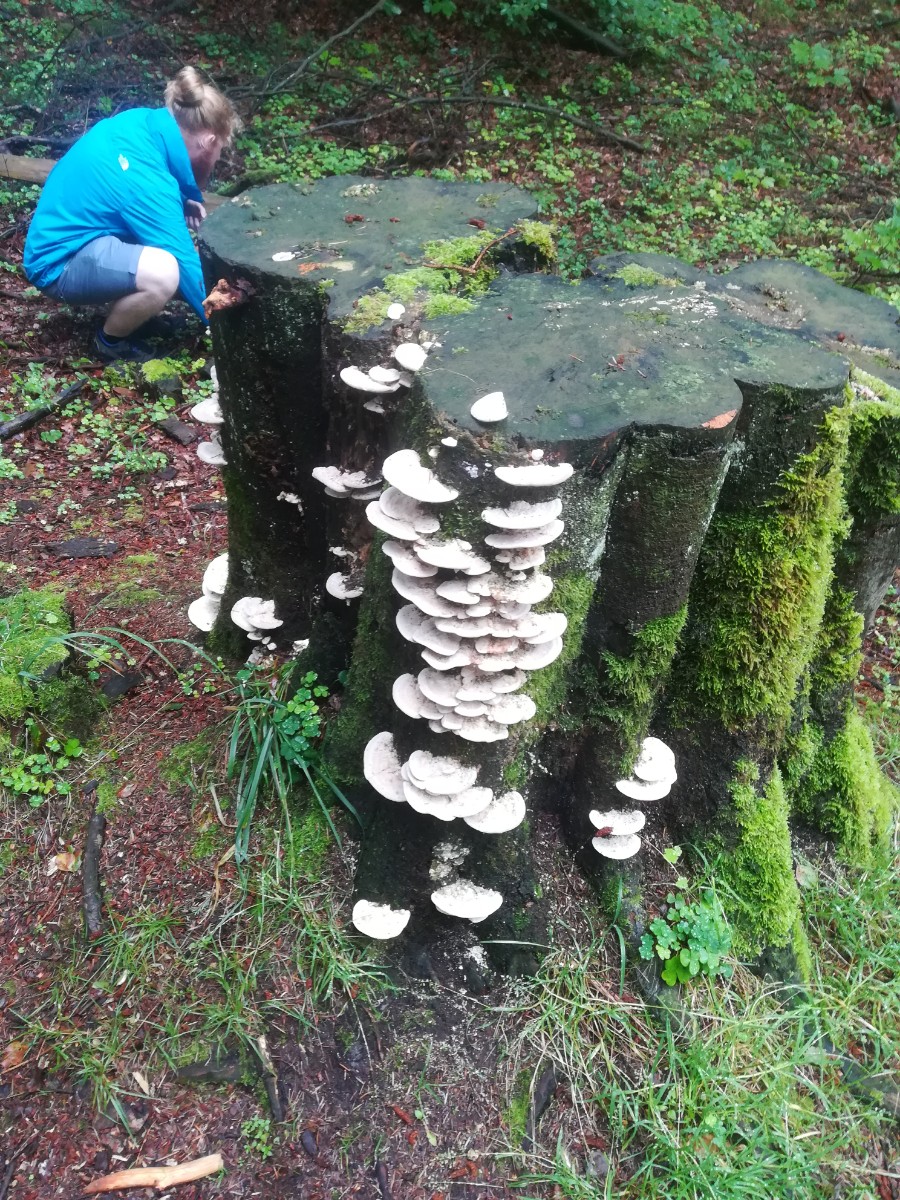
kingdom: Fungi
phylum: Basidiomycota
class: Agaricomycetes
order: Polyporales
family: Polyporaceae
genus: Trametes
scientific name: Trametes gibbosa
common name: puklet læderporesvamp
